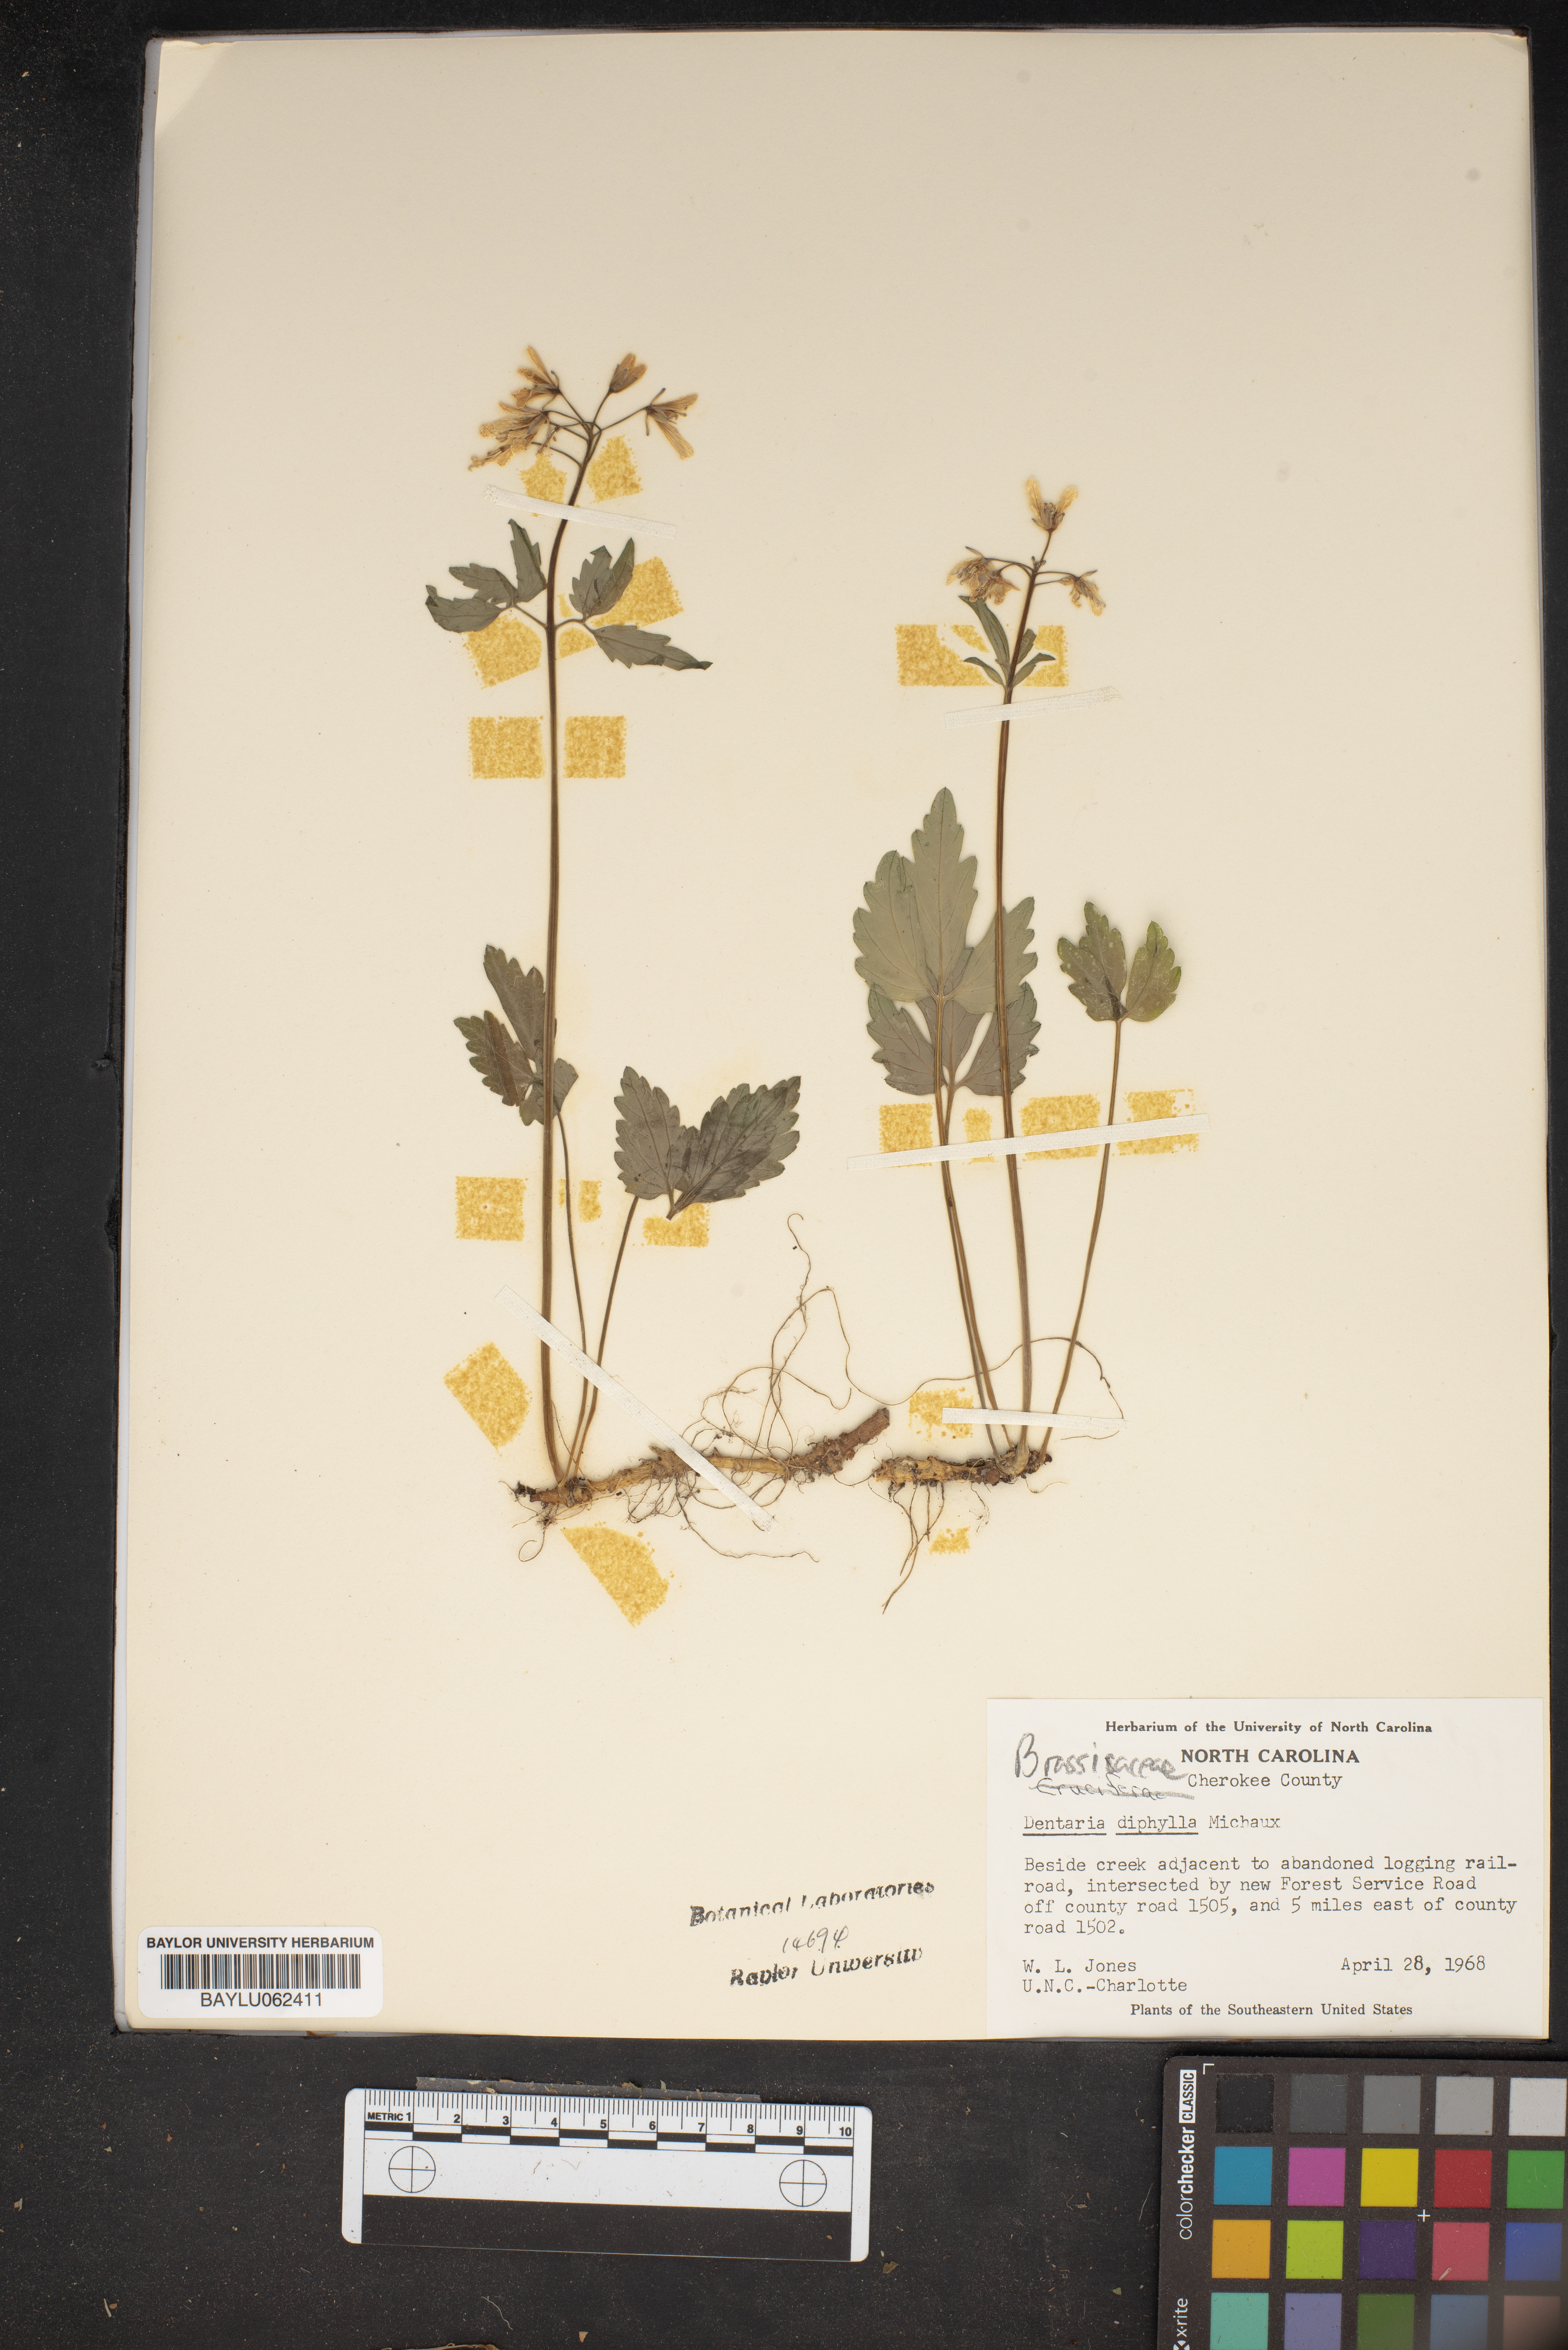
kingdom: Plantae
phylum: Tracheophyta
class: Magnoliopsida
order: Brassicales
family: Brassicaceae
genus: Cardamine
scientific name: Cardamine diphylla
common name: Broad-leaved toothwort
